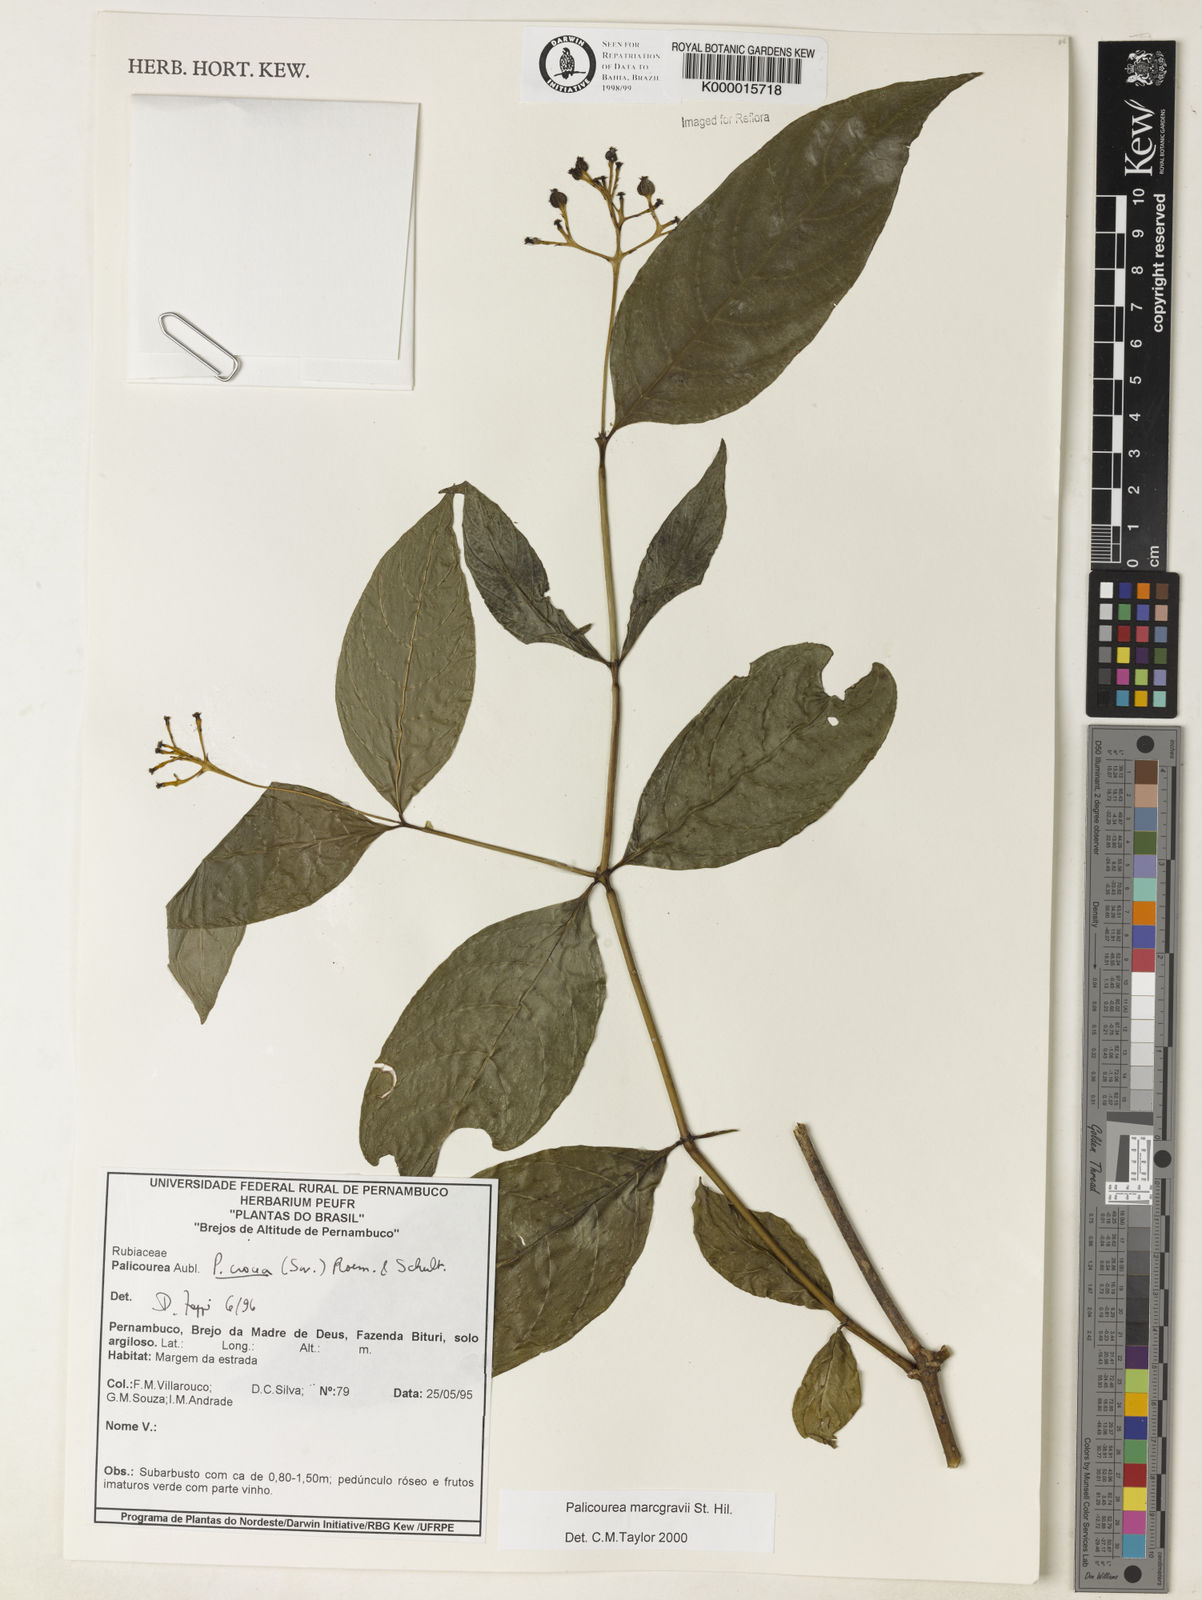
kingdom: Plantae
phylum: Tracheophyta
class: Magnoliopsida
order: Gentianales
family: Rubiaceae
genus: Palicourea
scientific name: Palicourea marcgravii
